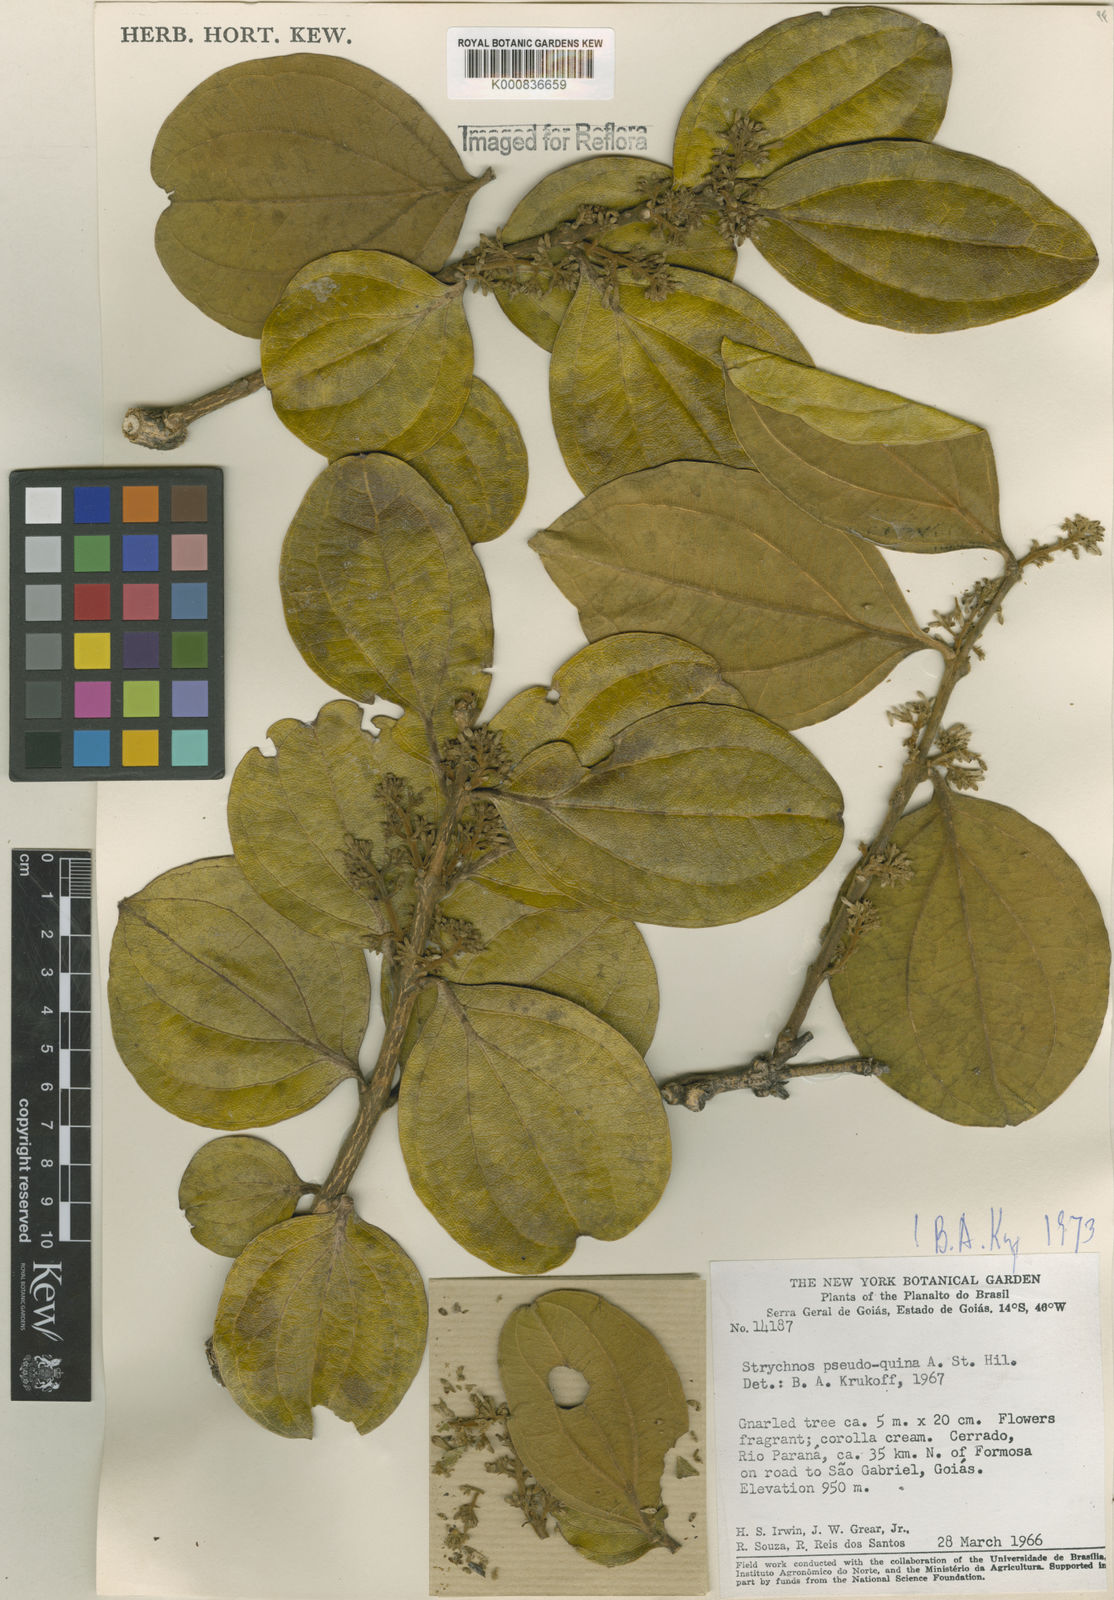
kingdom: Plantae
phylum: Tracheophyta
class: Magnoliopsida
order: Gentianales
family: Loganiaceae
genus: Strychnos
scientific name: Strychnos pseudoquina
